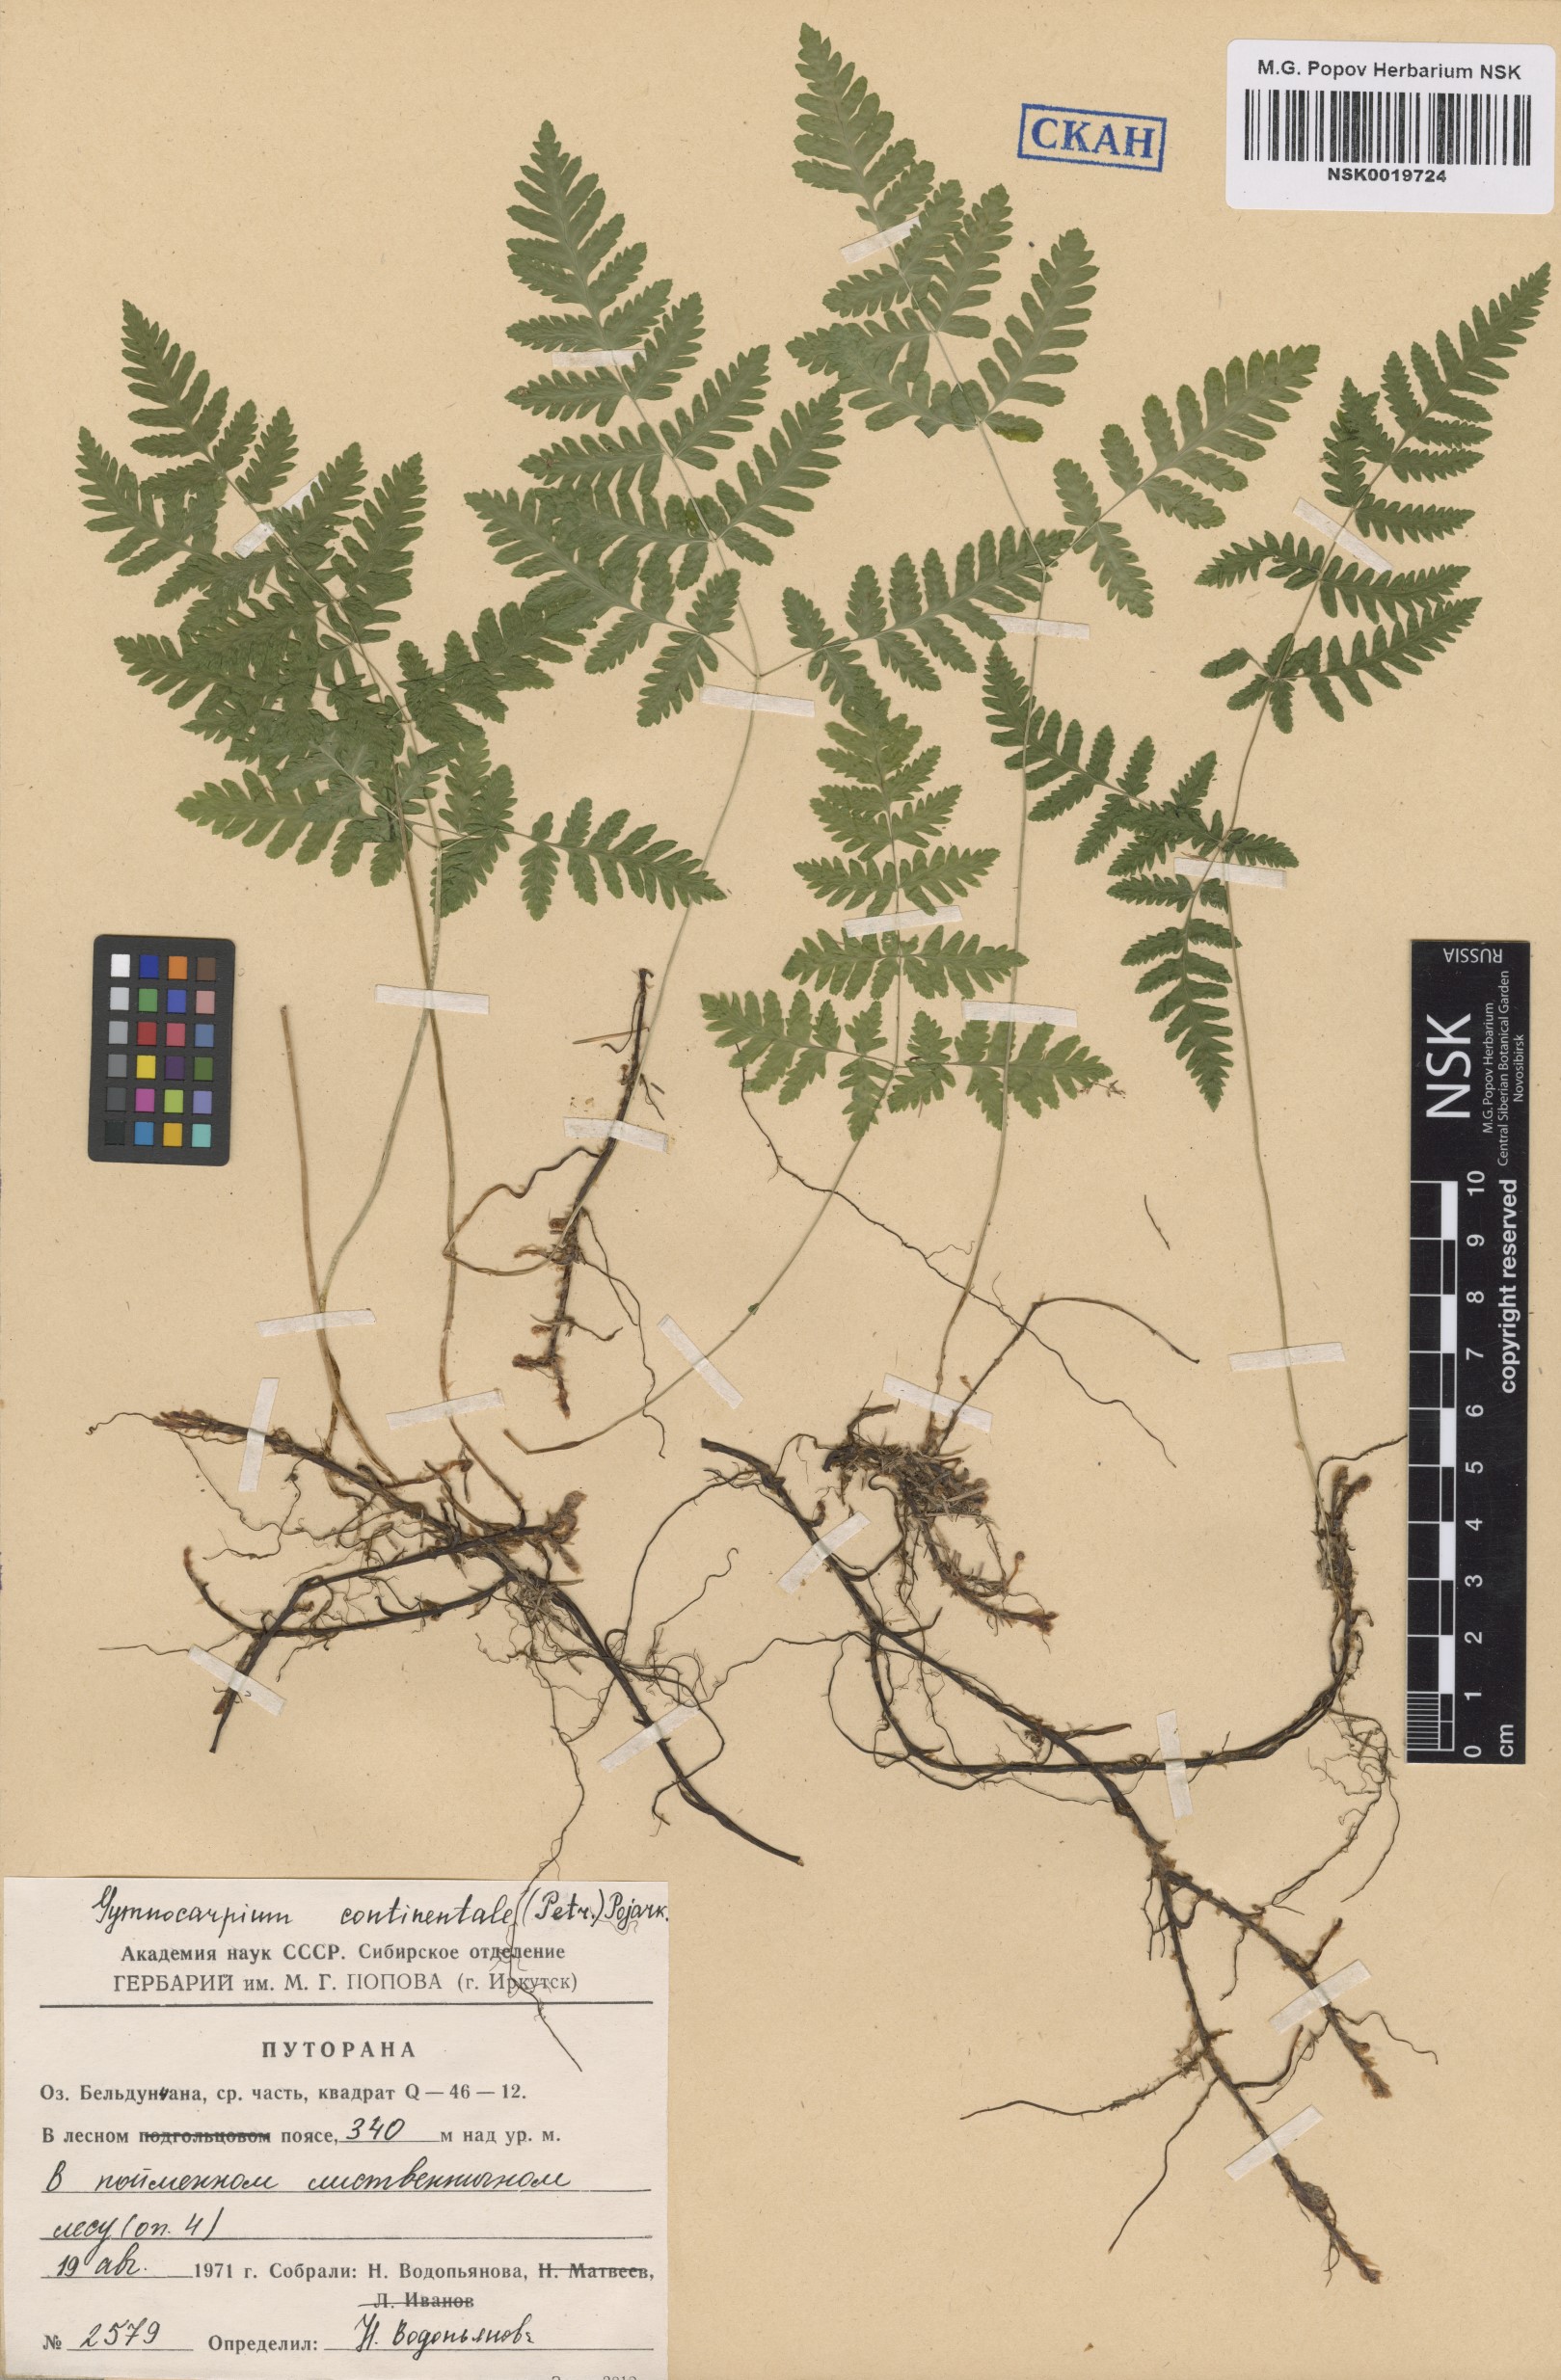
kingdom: Plantae
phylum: Tracheophyta
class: Polypodiopsida
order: Polypodiales
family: Cystopteridaceae
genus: Gymnocarpium
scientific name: Gymnocarpium continentale
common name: Asian oak fern
